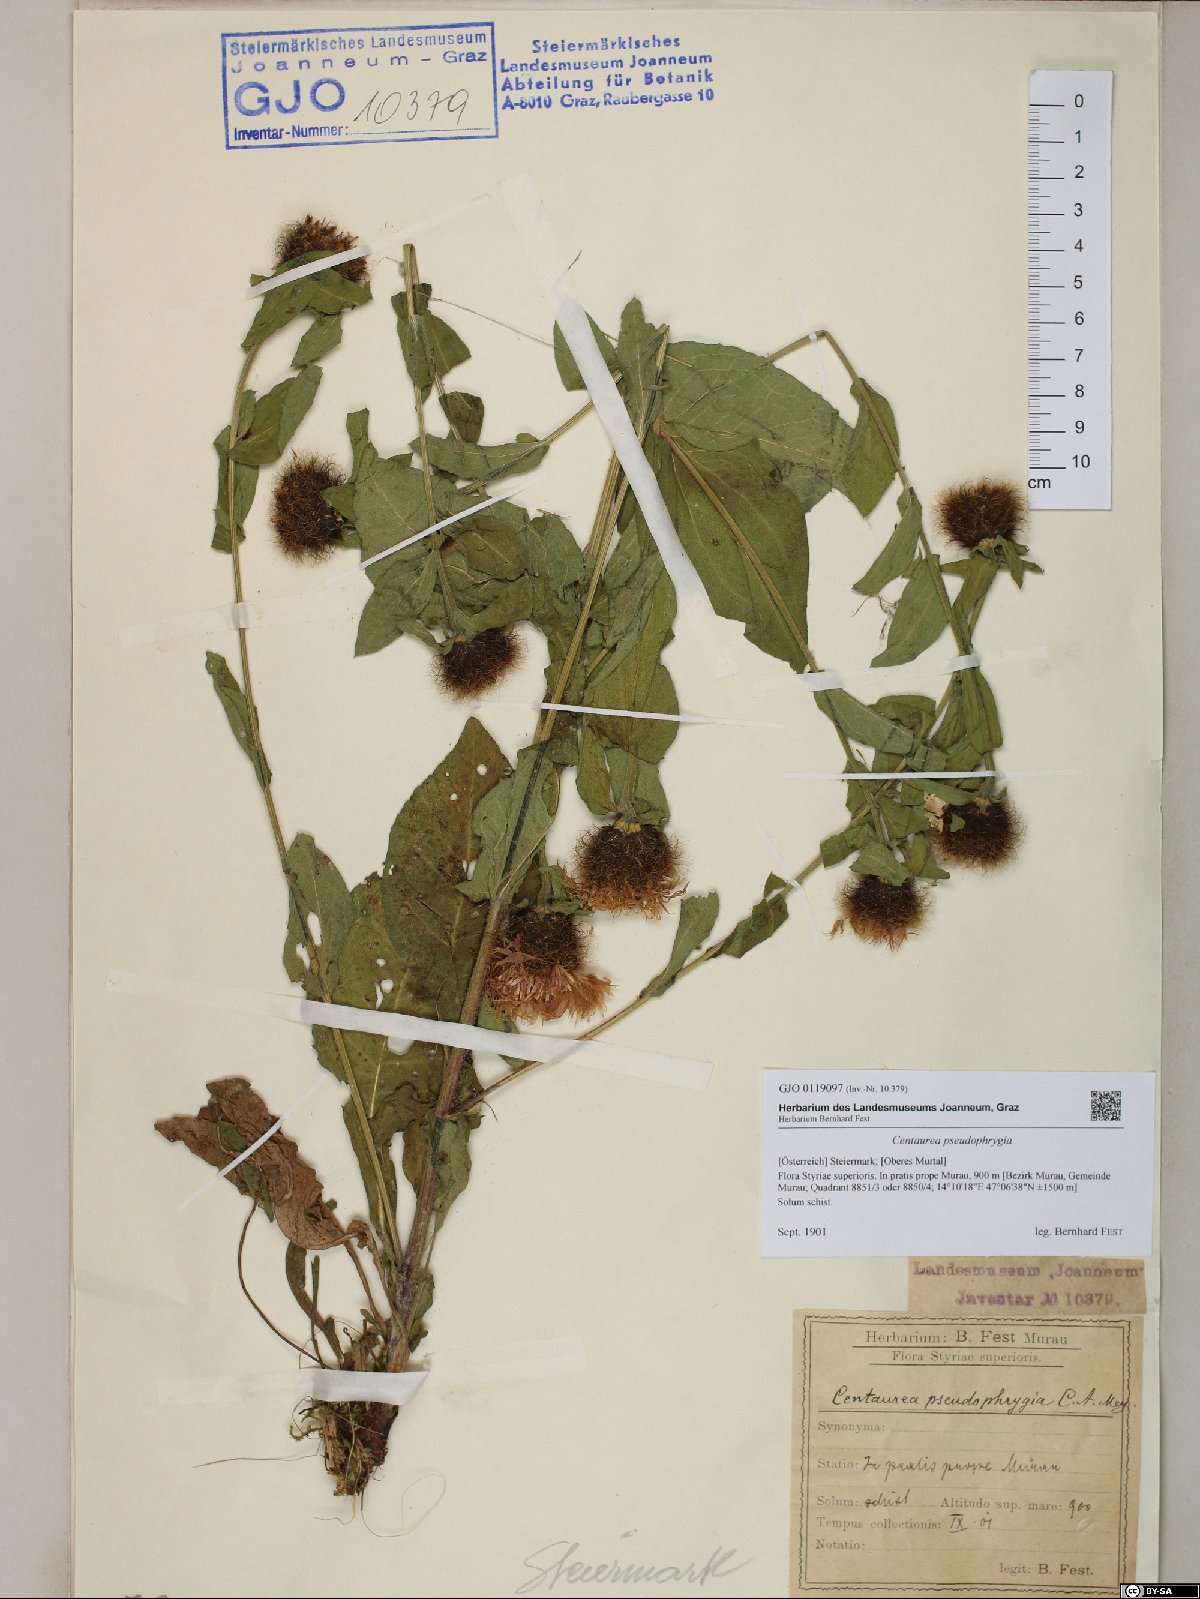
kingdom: Plantae
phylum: Tracheophyta
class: Magnoliopsida
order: Asterales
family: Asteraceae
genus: Centaurea
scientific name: Centaurea pseudophrygia
